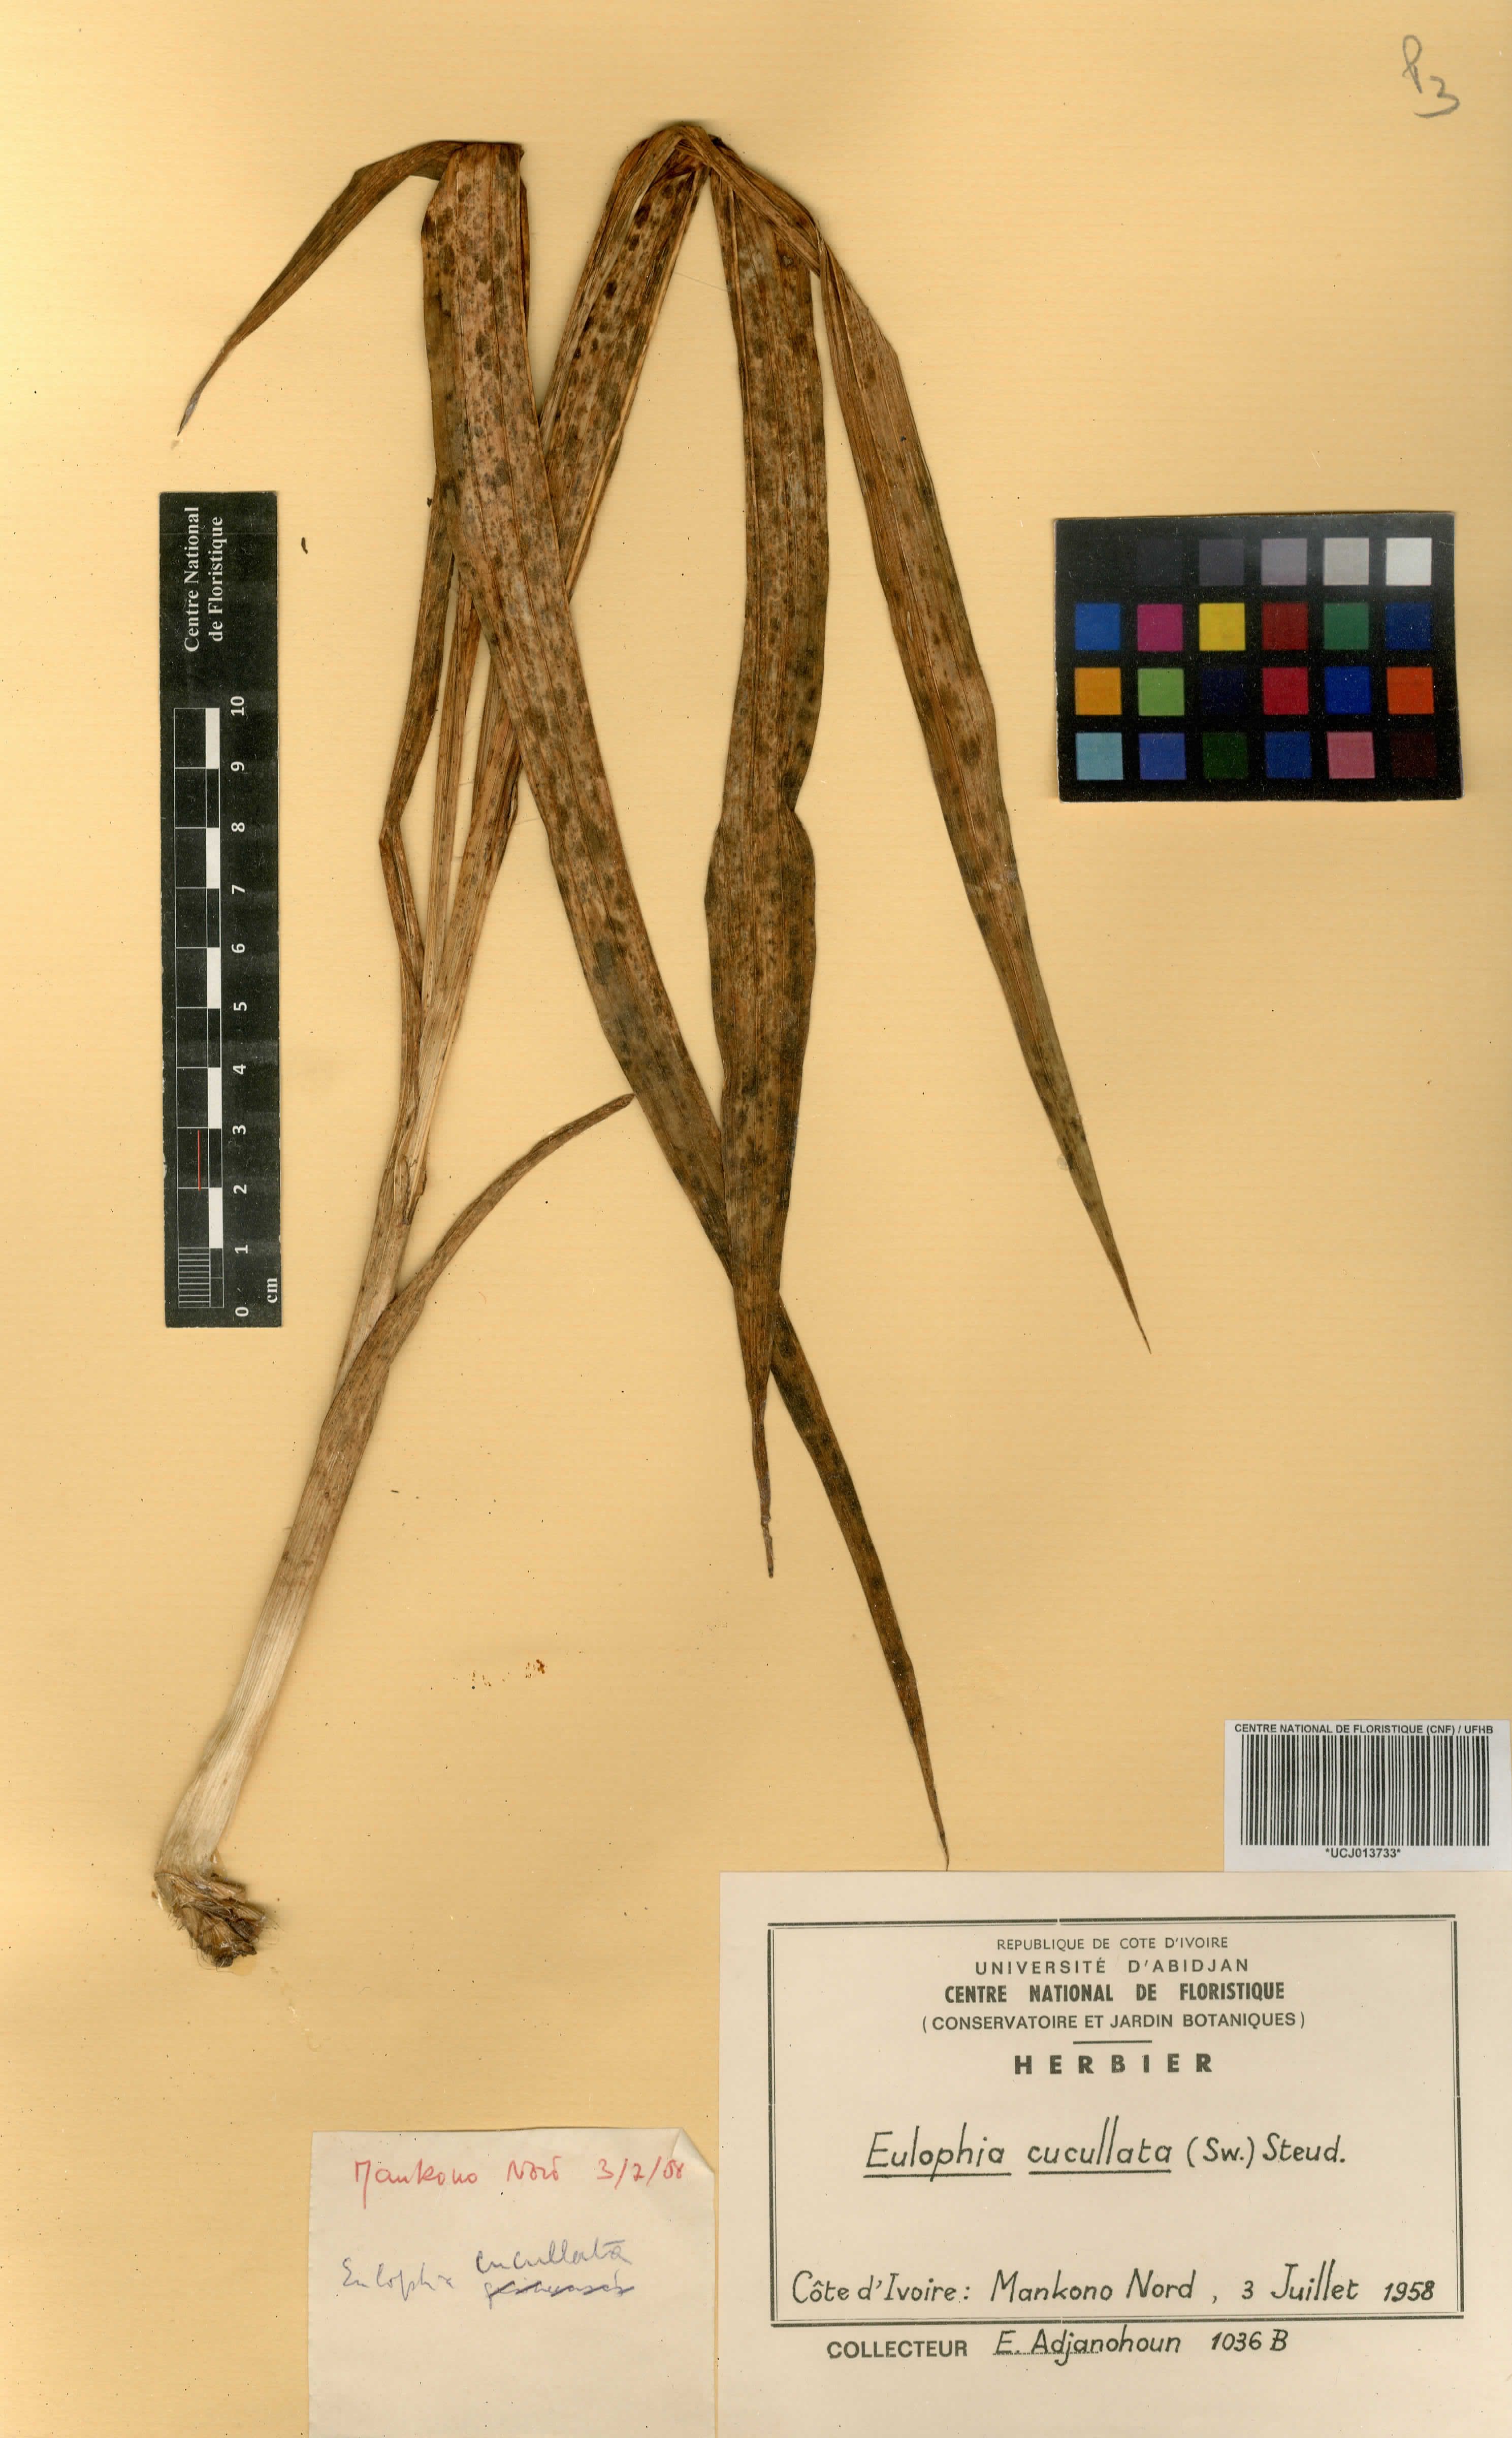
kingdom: Plantae
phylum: Tracheophyta
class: Liliopsida
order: Asparagales
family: Orchidaceae
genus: Eulophia
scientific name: Eulophia cucullata
